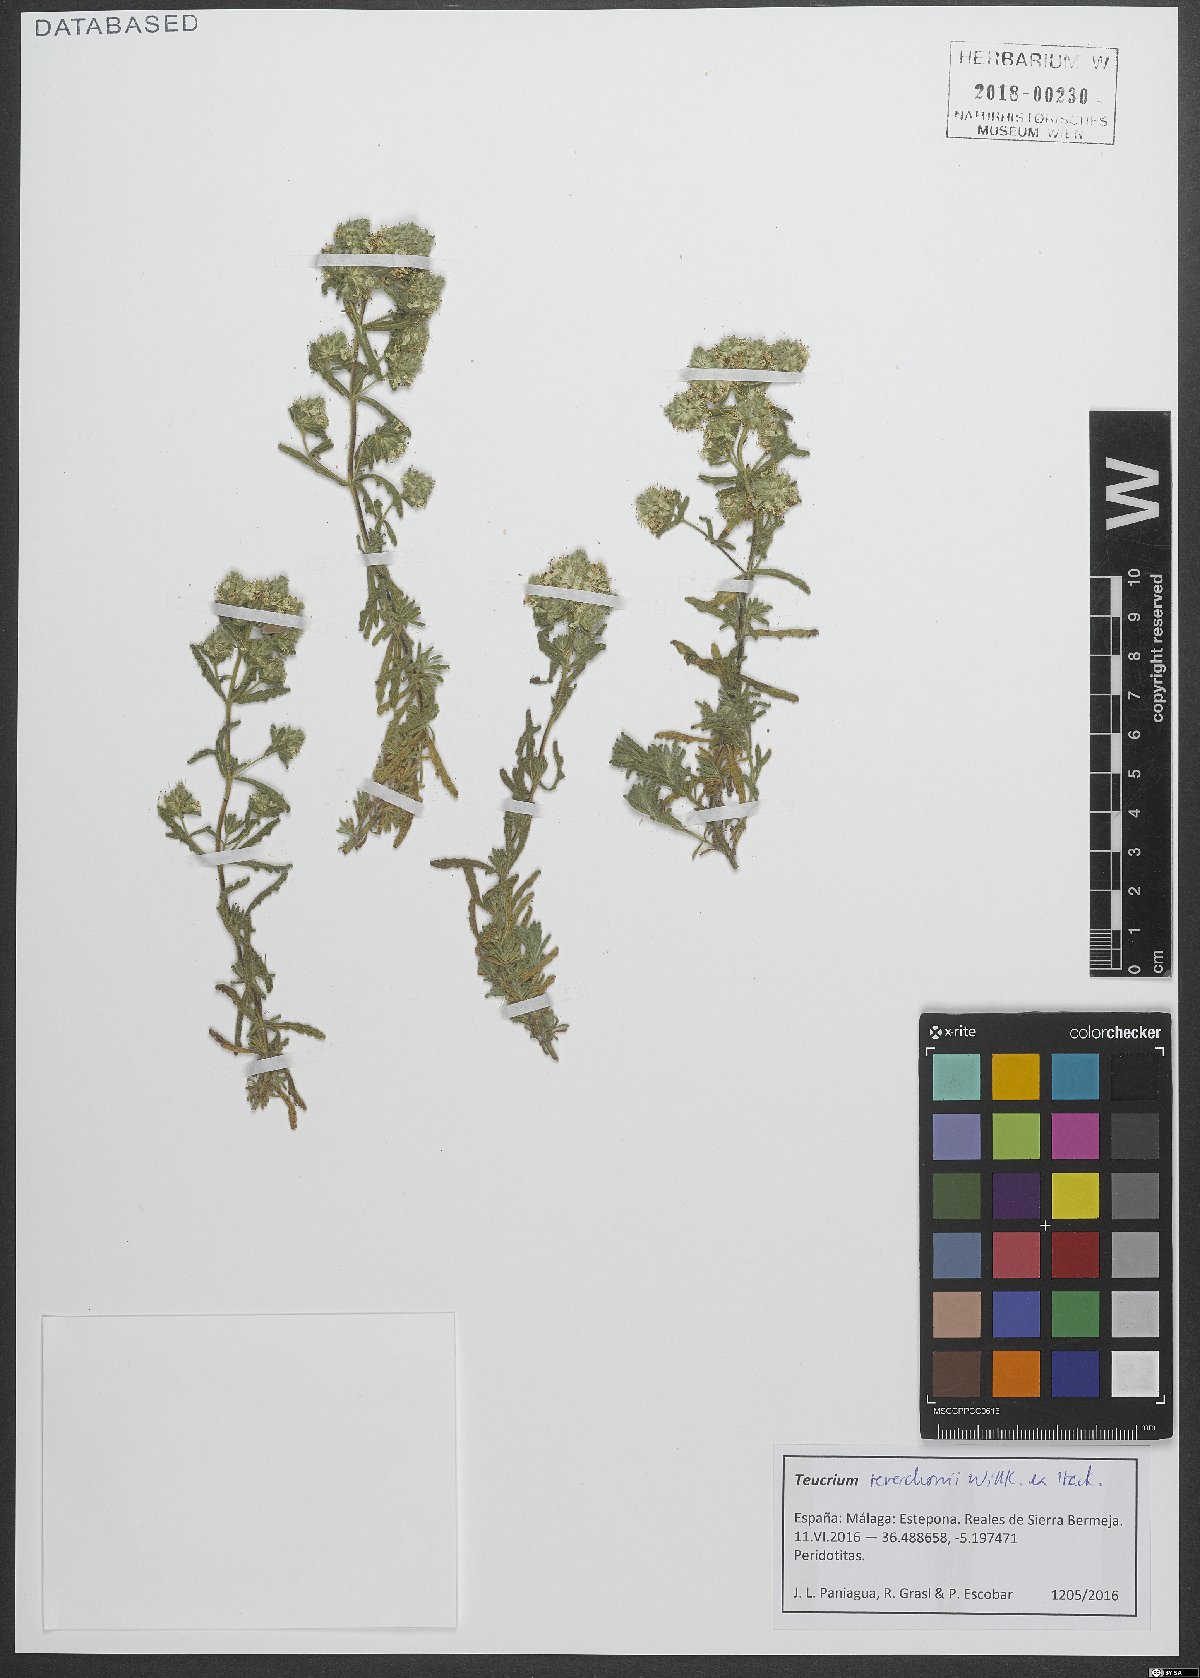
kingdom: Plantae
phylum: Tracheophyta
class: Magnoliopsida
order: Lamiales
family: Lamiaceae
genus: Teucrium
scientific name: Teucrium chlorocephalum
